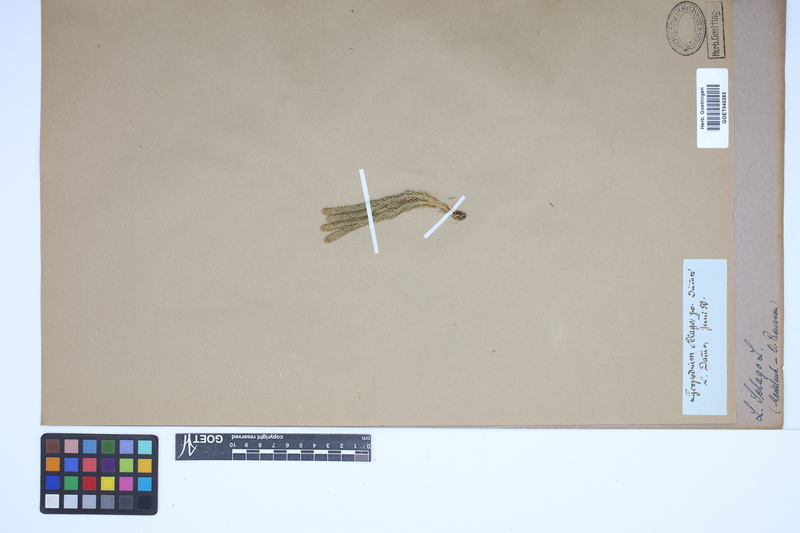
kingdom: Plantae
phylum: Tracheophyta
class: Lycopodiopsida
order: Lycopodiales
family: Lycopodiaceae
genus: Huperzia
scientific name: Huperzia selago
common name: Northern firmoss
